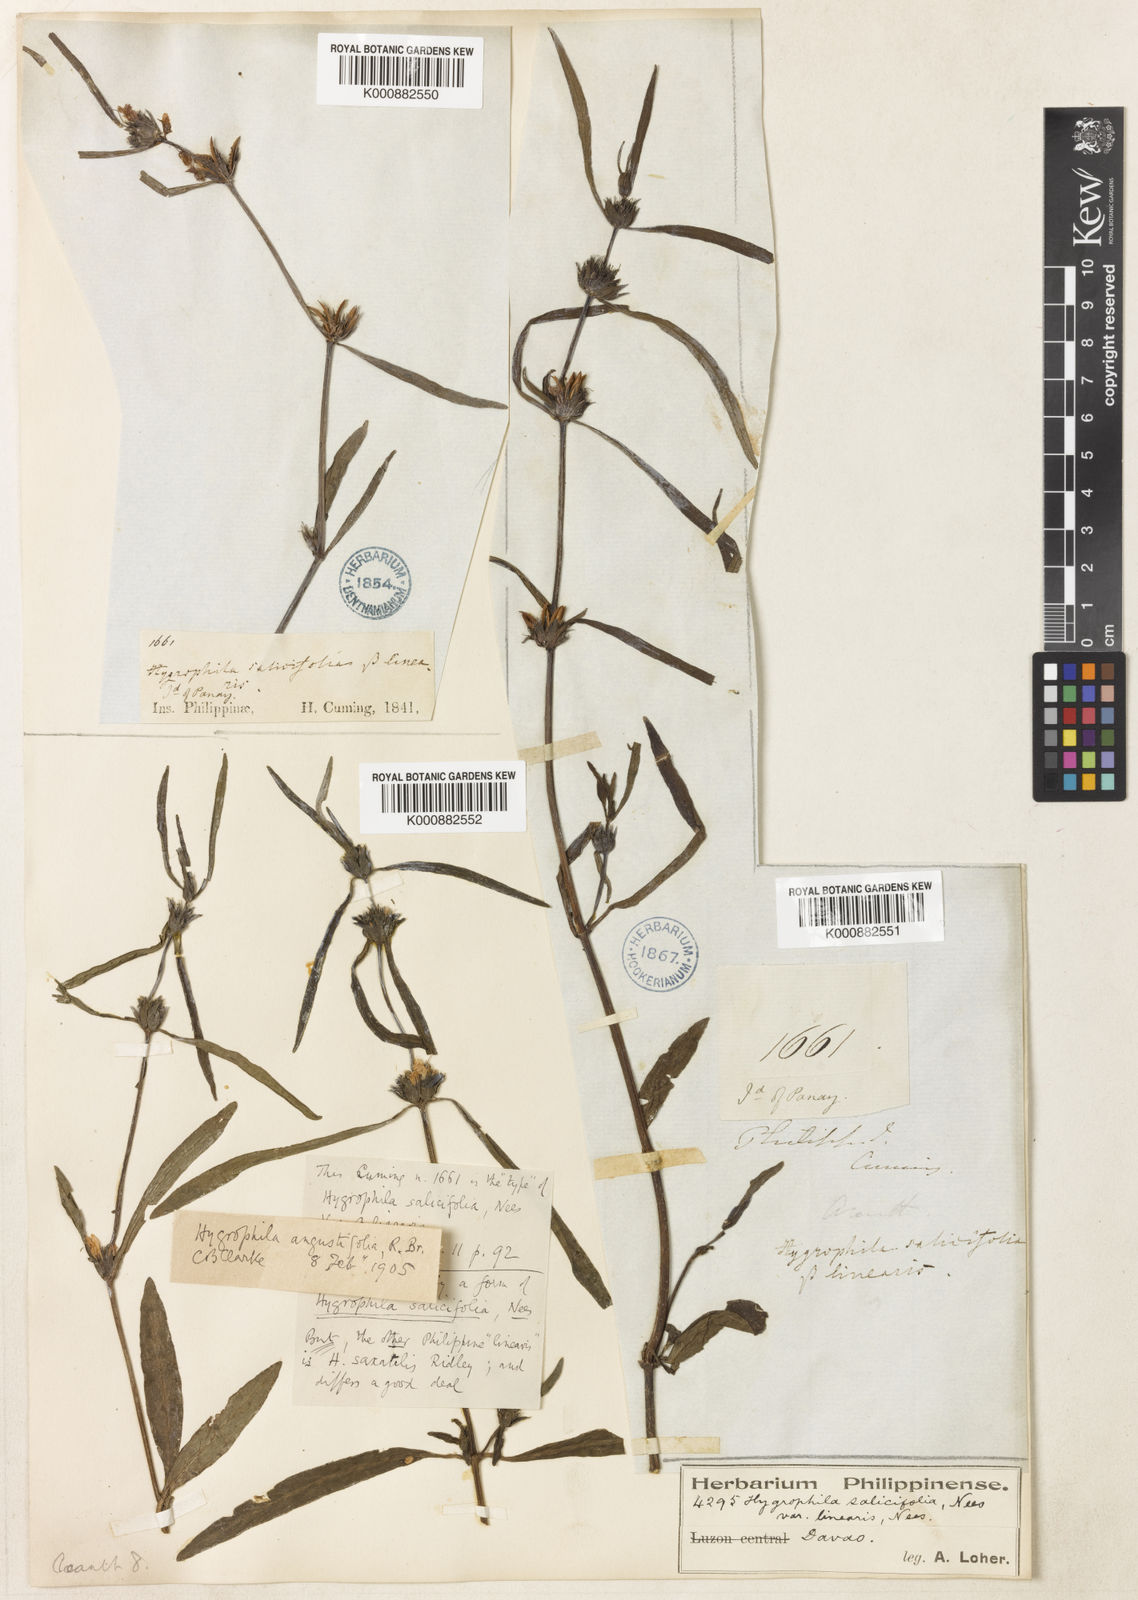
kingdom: Plantae
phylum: Tracheophyta
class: Magnoliopsida
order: Lamiales
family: Acanthaceae
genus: Hygrophila
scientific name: Hygrophila ringens
